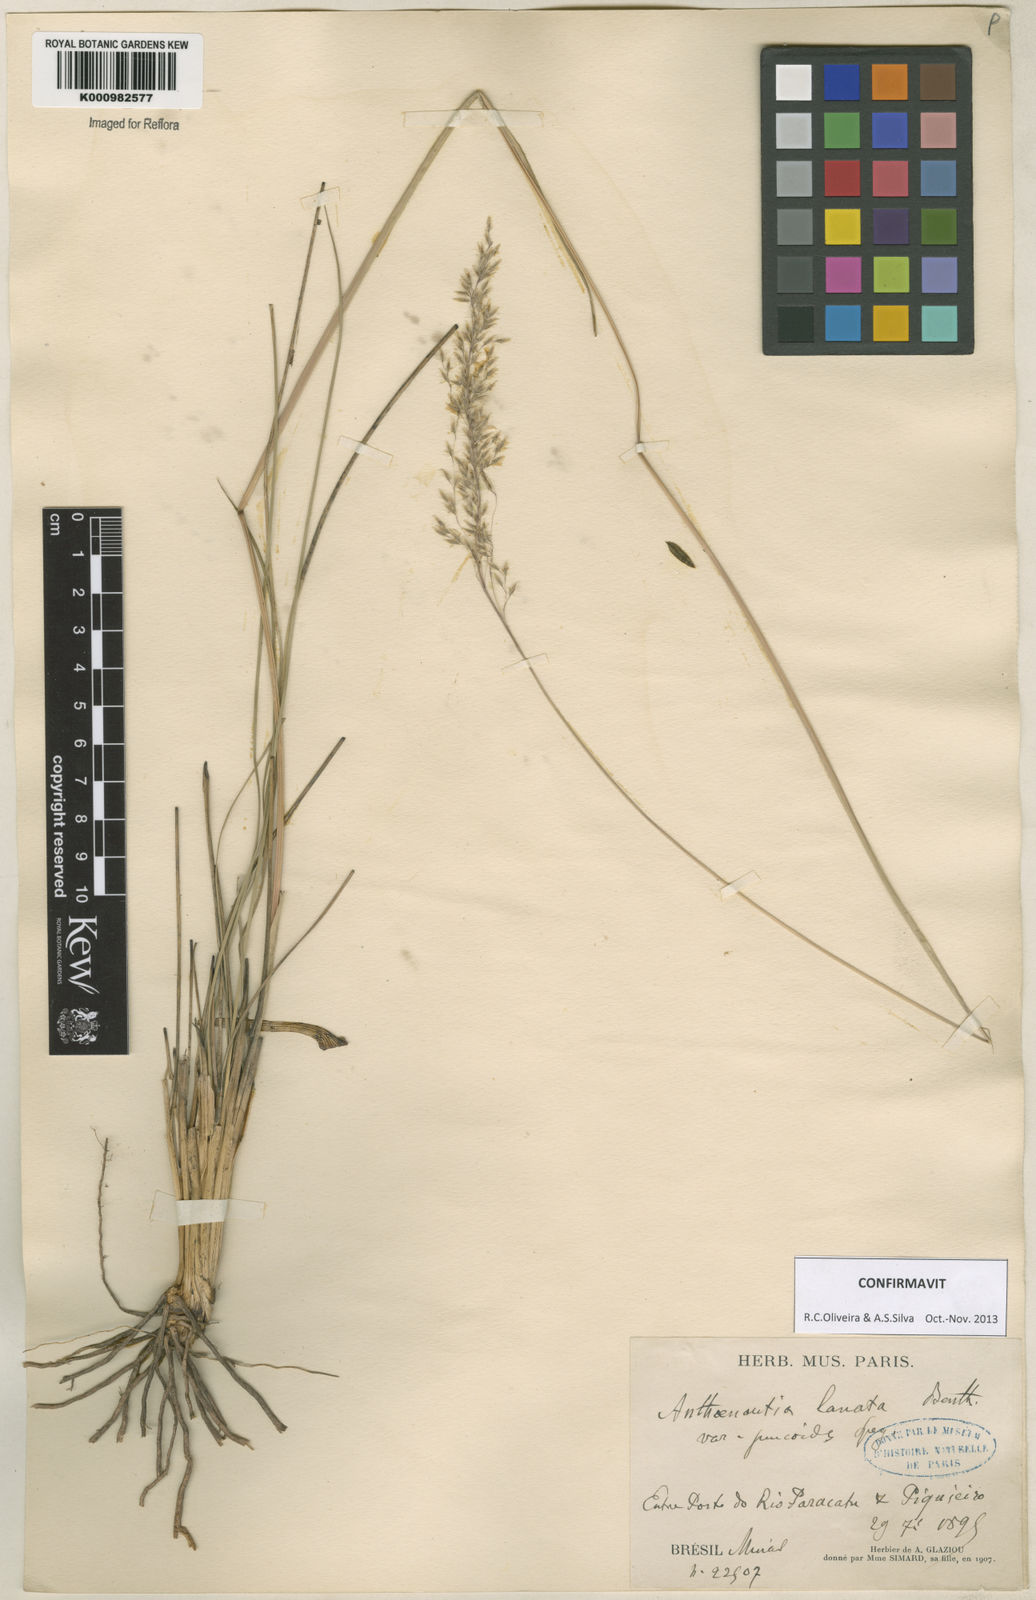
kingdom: Plantae
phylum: Tracheophyta
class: Liliopsida
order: Poales
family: Poaceae
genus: Anthenantia
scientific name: Anthenantia lanata
